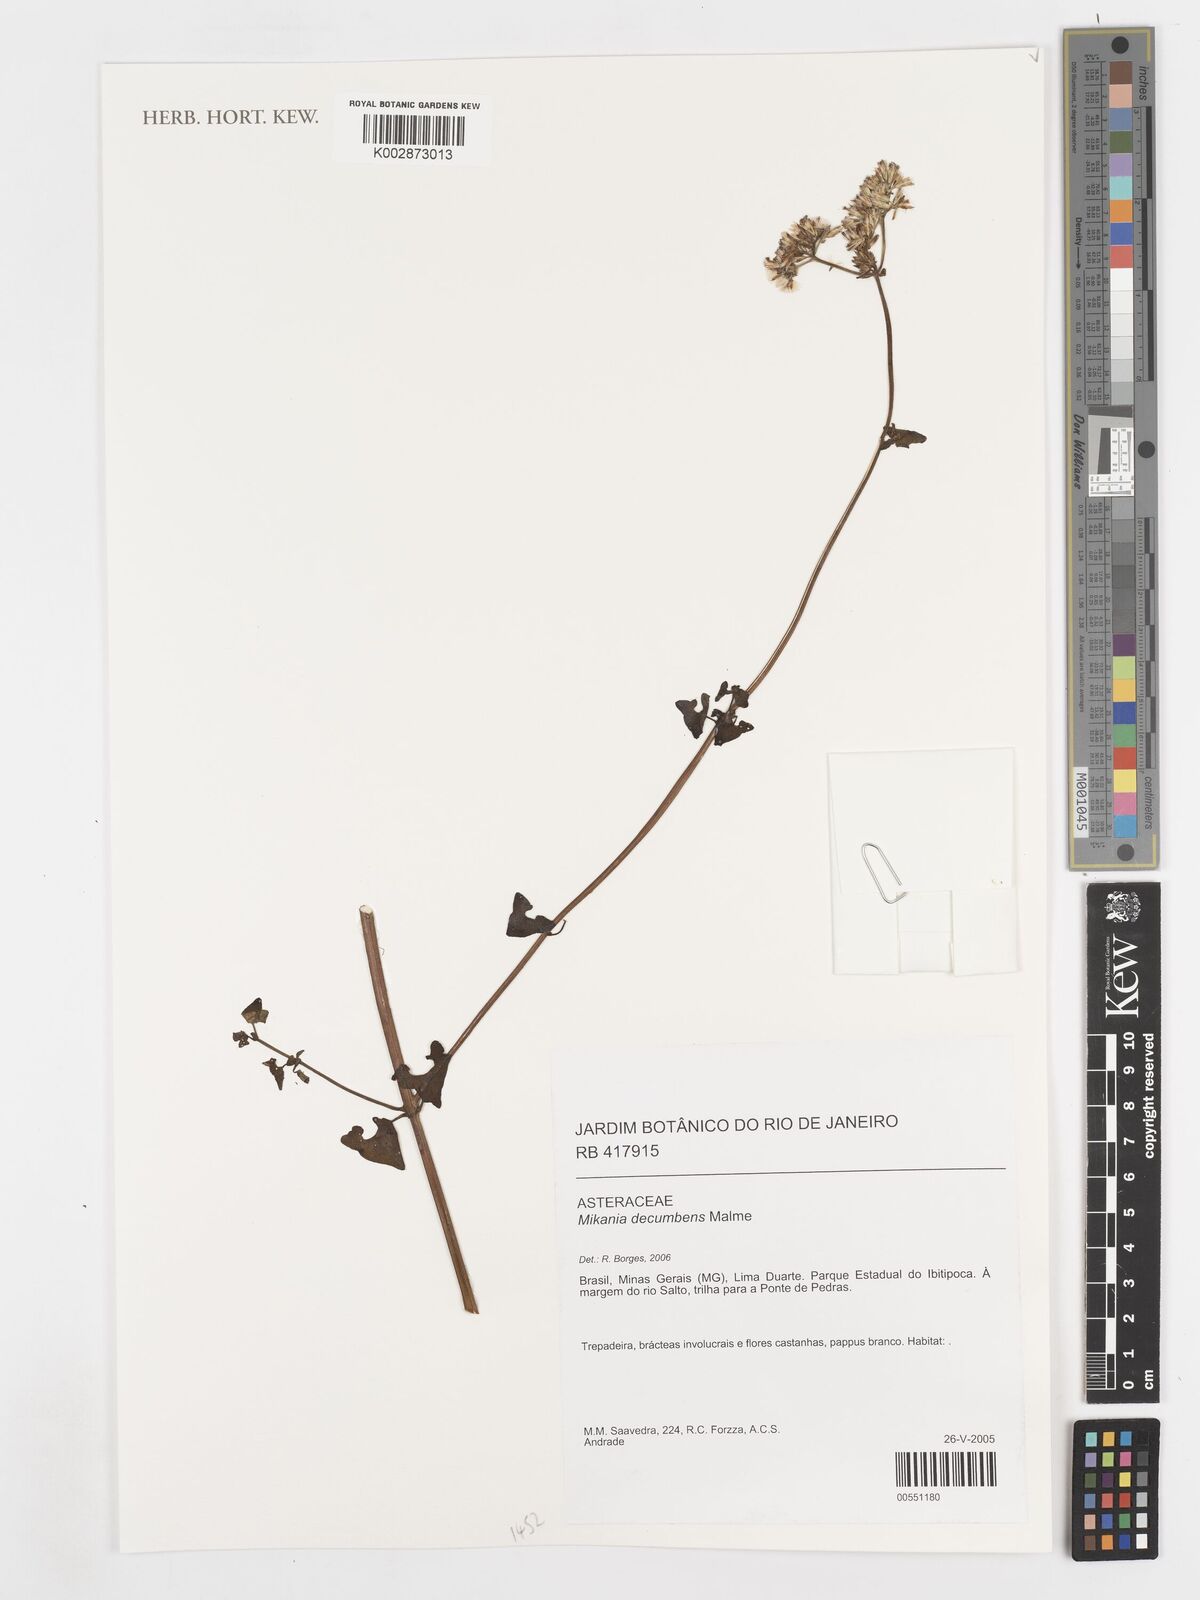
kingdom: Plantae
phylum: Tracheophyta
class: Magnoliopsida
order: Asterales
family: Asteraceae
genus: Mikania
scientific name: Mikania decumbens
